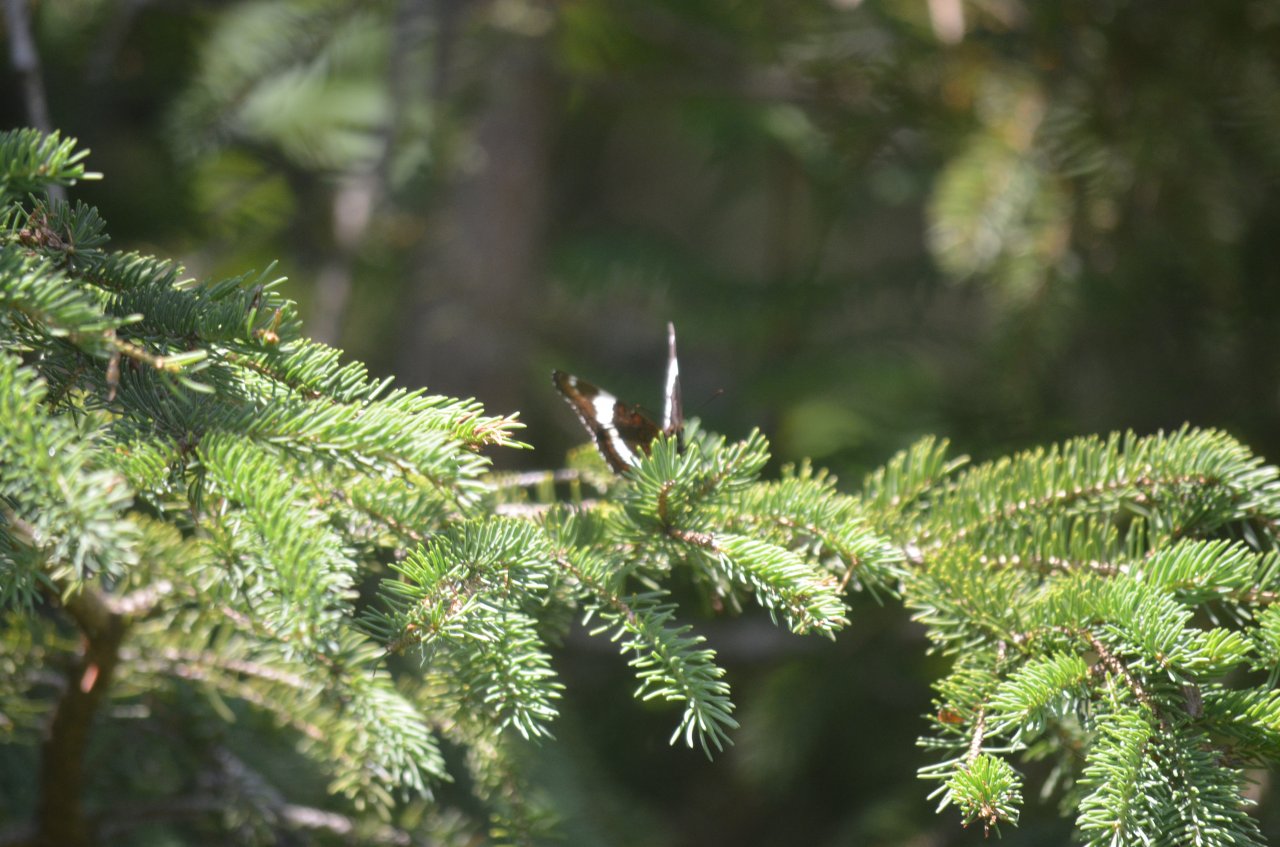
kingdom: Animalia
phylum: Arthropoda
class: Insecta
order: Lepidoptera
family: Nymphalidae
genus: Limenitis
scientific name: Limenitis arthemis
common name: Red-spotted Admiral
